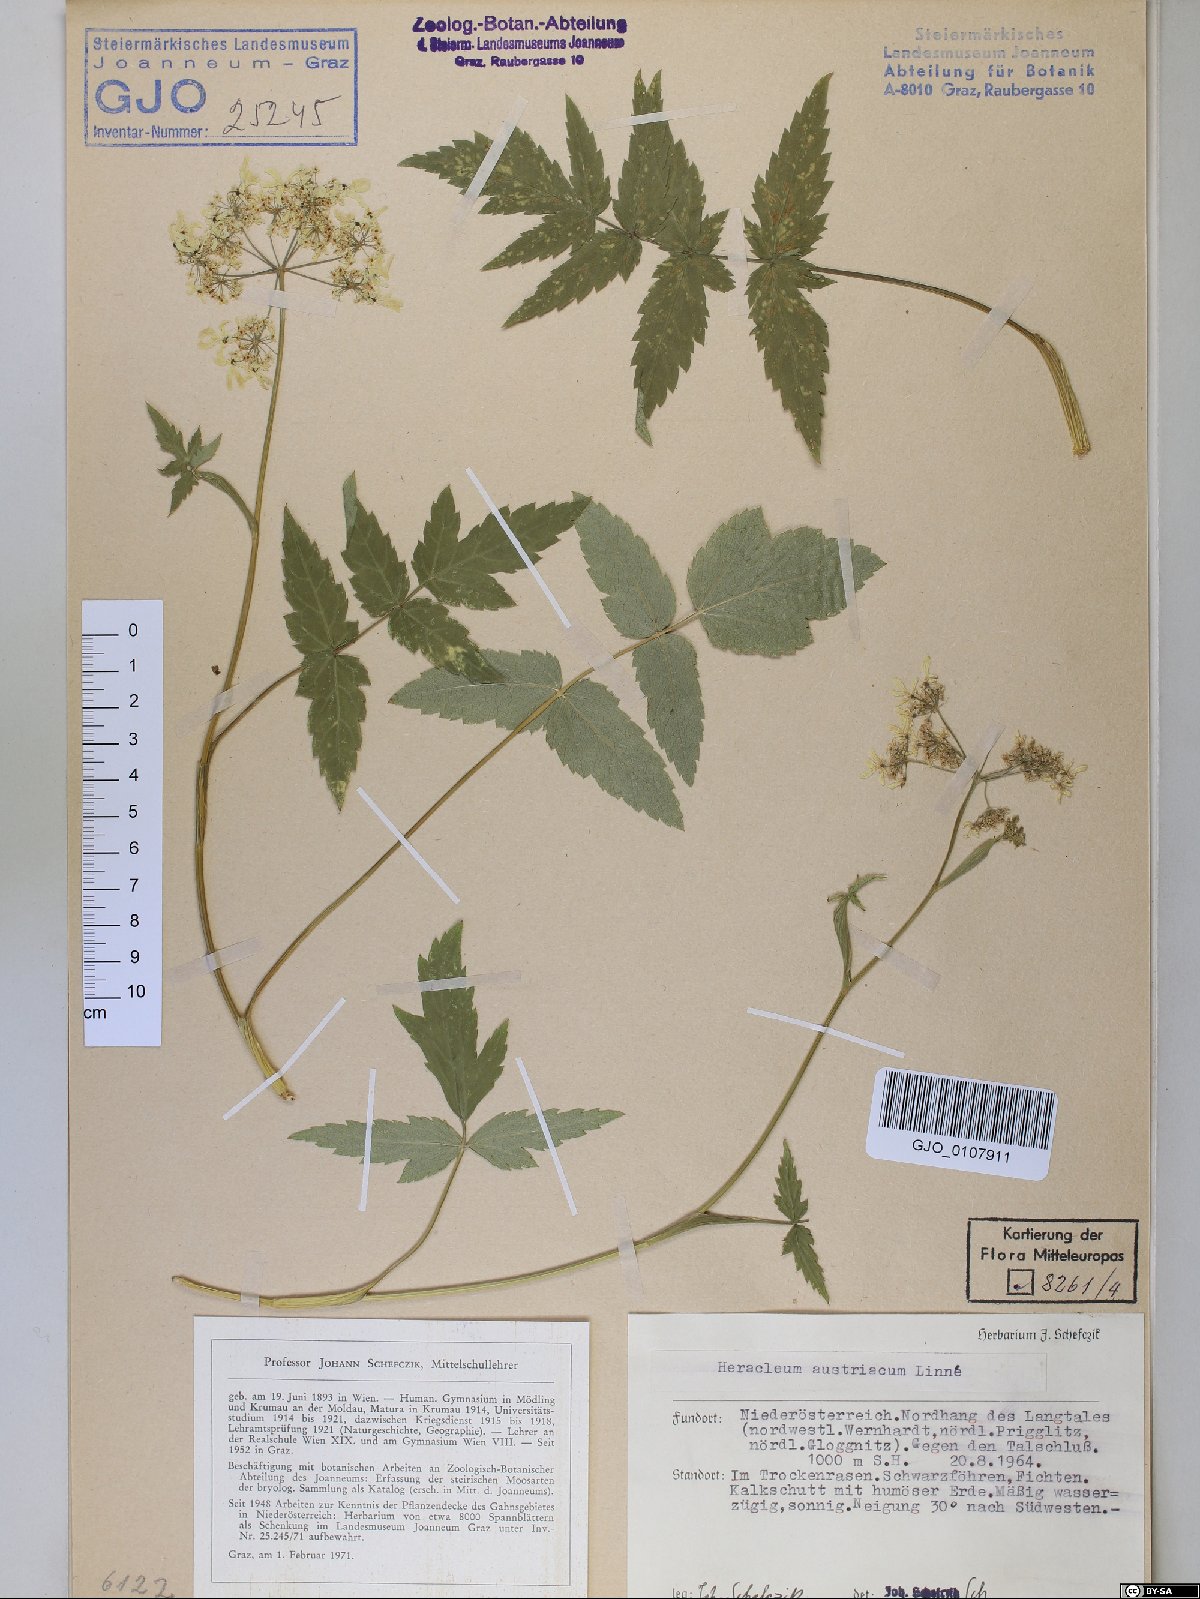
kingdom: Plantae
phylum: Tracheophyta
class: Magnoliopsida
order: Apiales
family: Apiaceae
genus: Heracleum
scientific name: Heracleum austriacum
